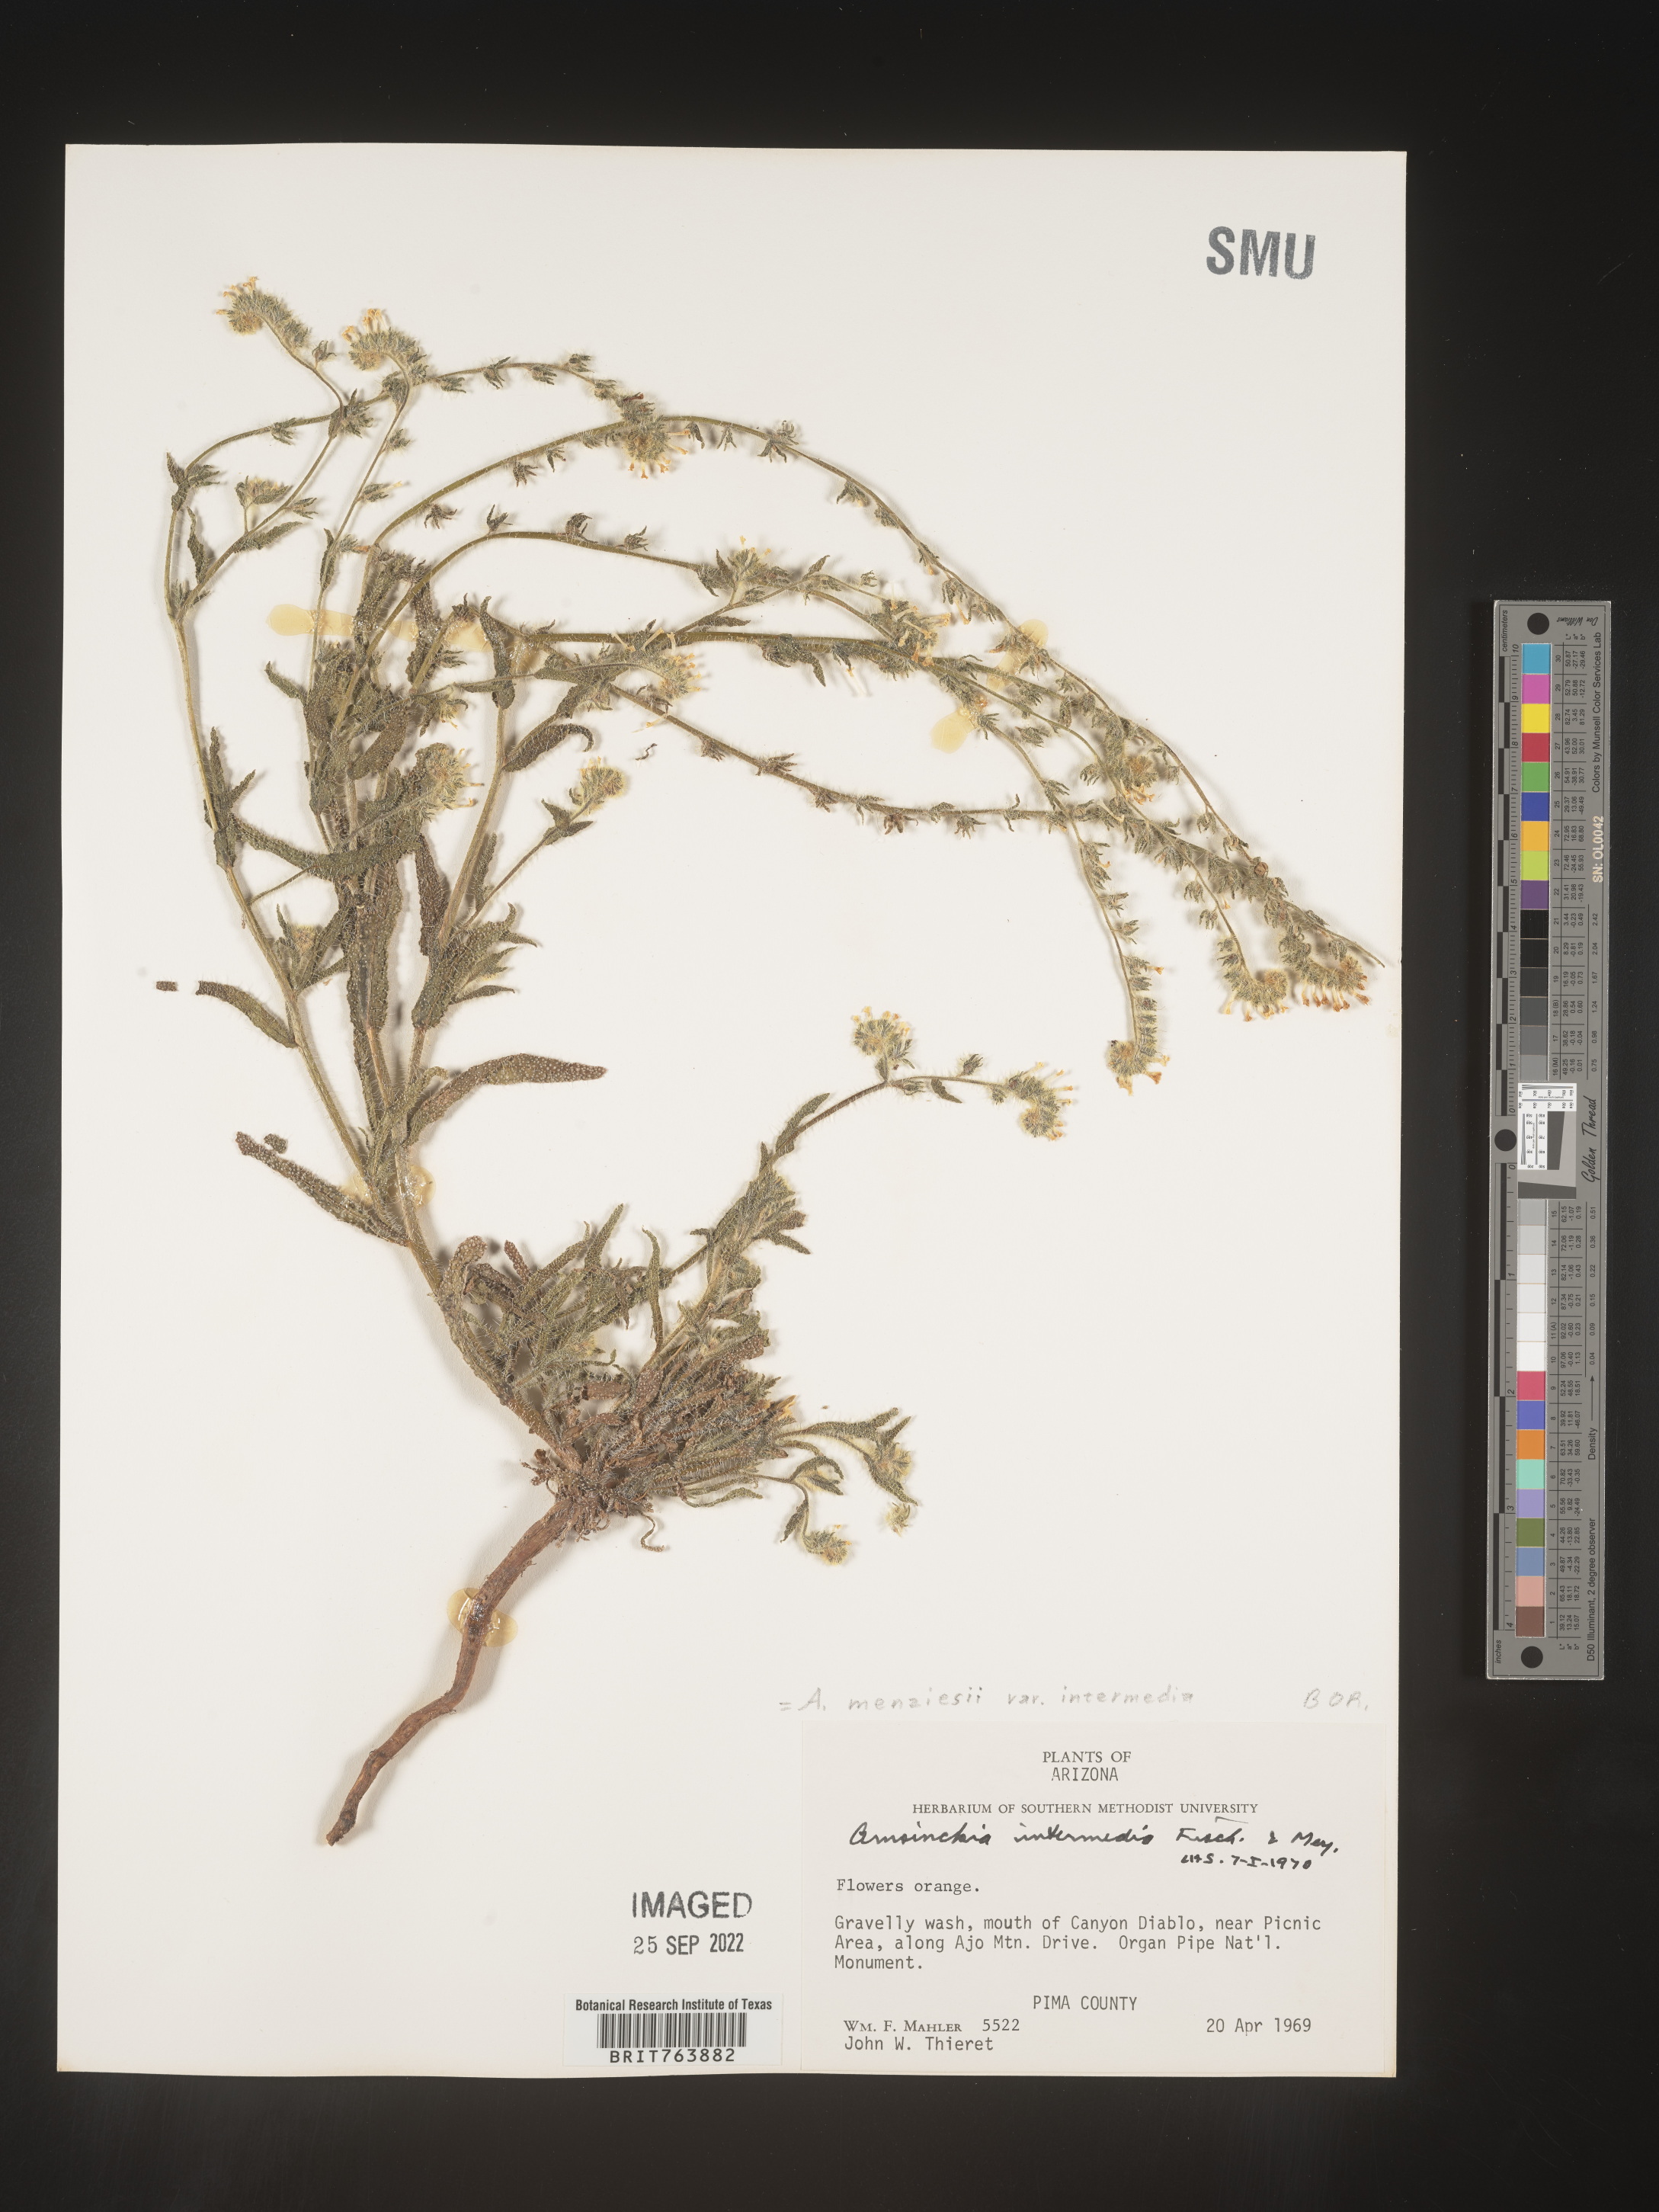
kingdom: Plantae
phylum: Tracheophyta
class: Magnoliopsida
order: Boraginales
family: Boraginaceae
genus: Amsinckia
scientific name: Amsinckia menziesii
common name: Menzies' fiddleneck
